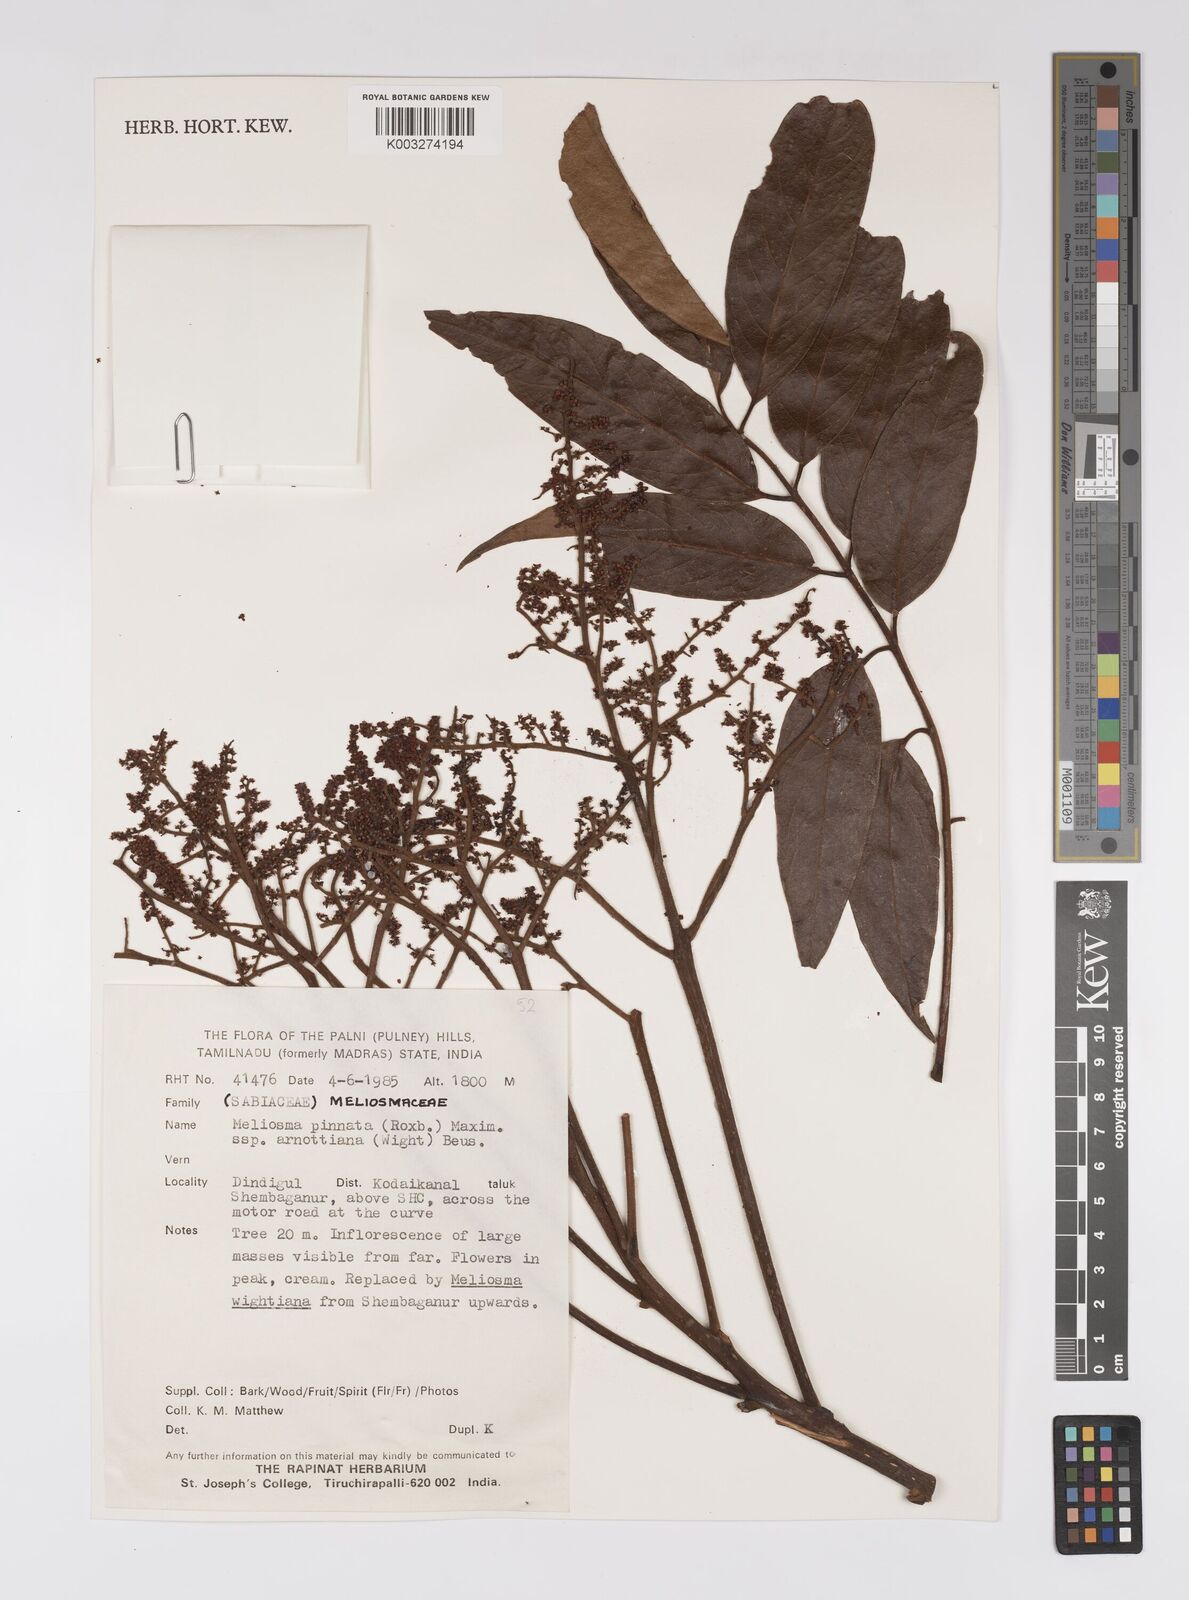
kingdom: Plantae
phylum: Tracheophyta
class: Magnoliopsida
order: Proteales
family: Sabiaceae
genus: Meliosma
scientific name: Meliosma rhoifolia
